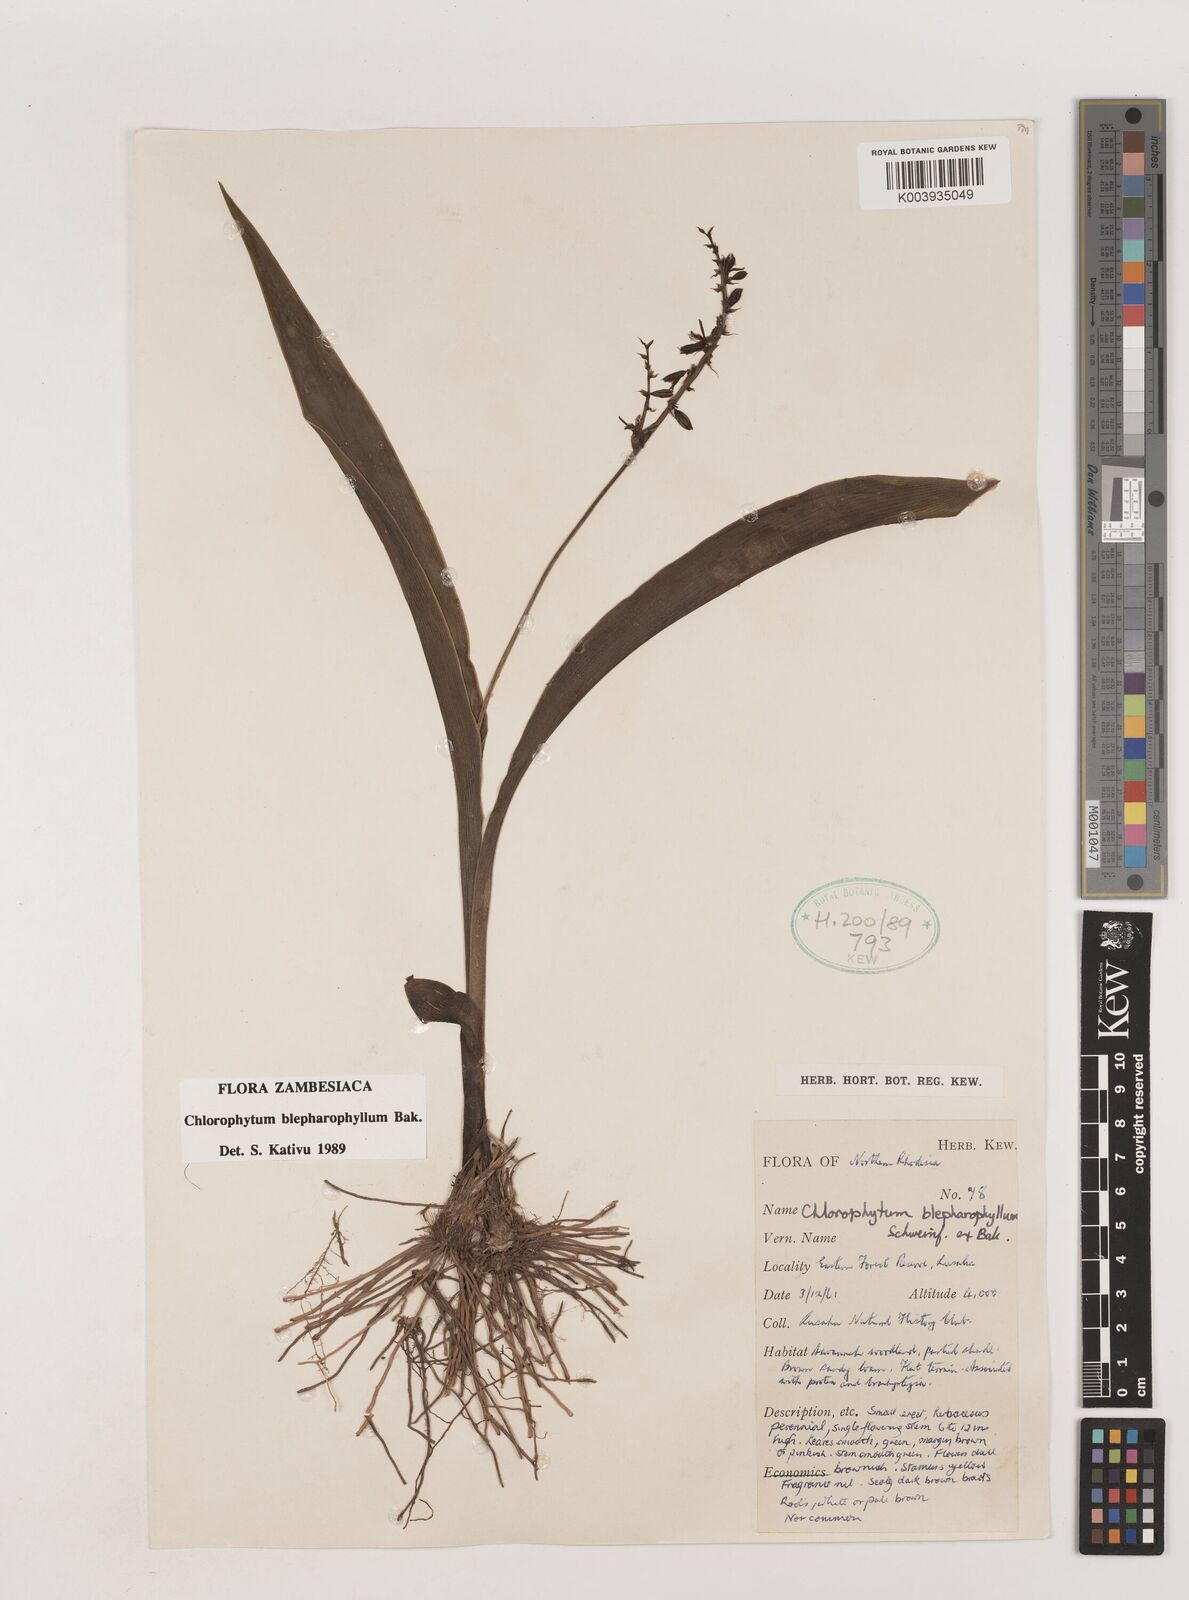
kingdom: Plantae
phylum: Tracheophyta
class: Liliopsida
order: Asparagales
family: Asparagaceae
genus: Chlorophytum
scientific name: Chlorophytum blepharophyllum
